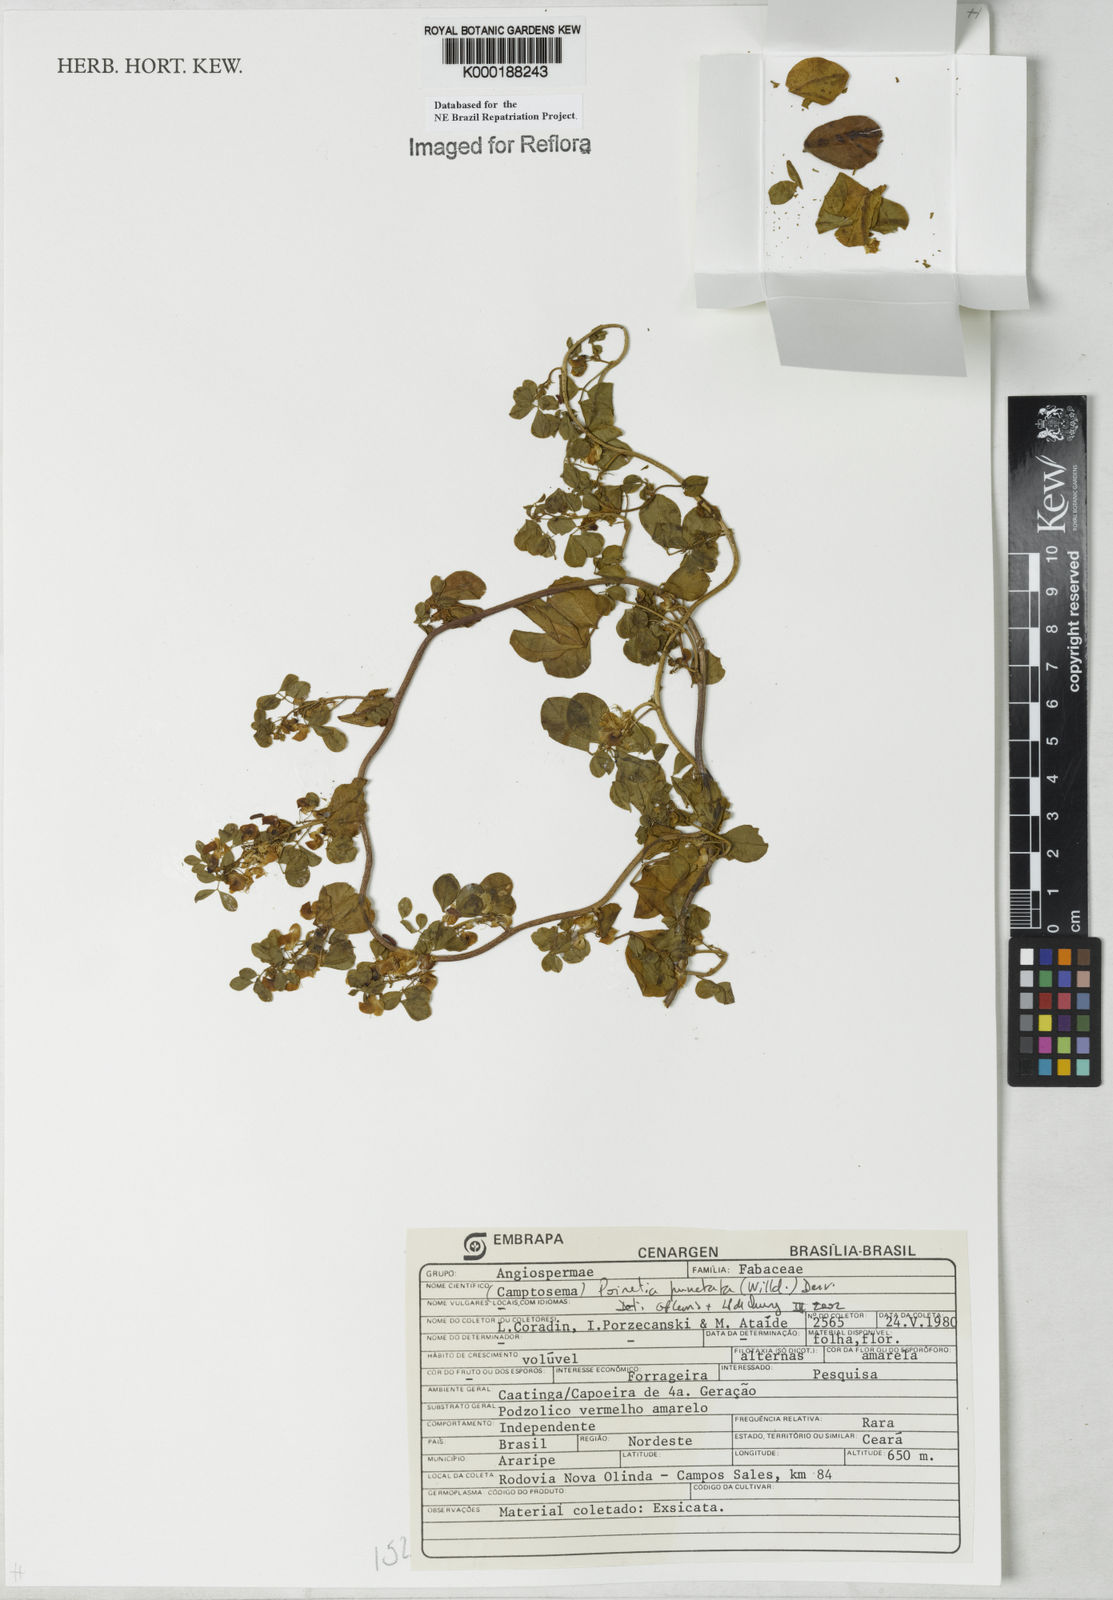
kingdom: Plantae
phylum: Tracheophyta
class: Magnoliopsida
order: Fabales
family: Fabaceae
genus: Poiretia
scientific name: Poiretia punctata
